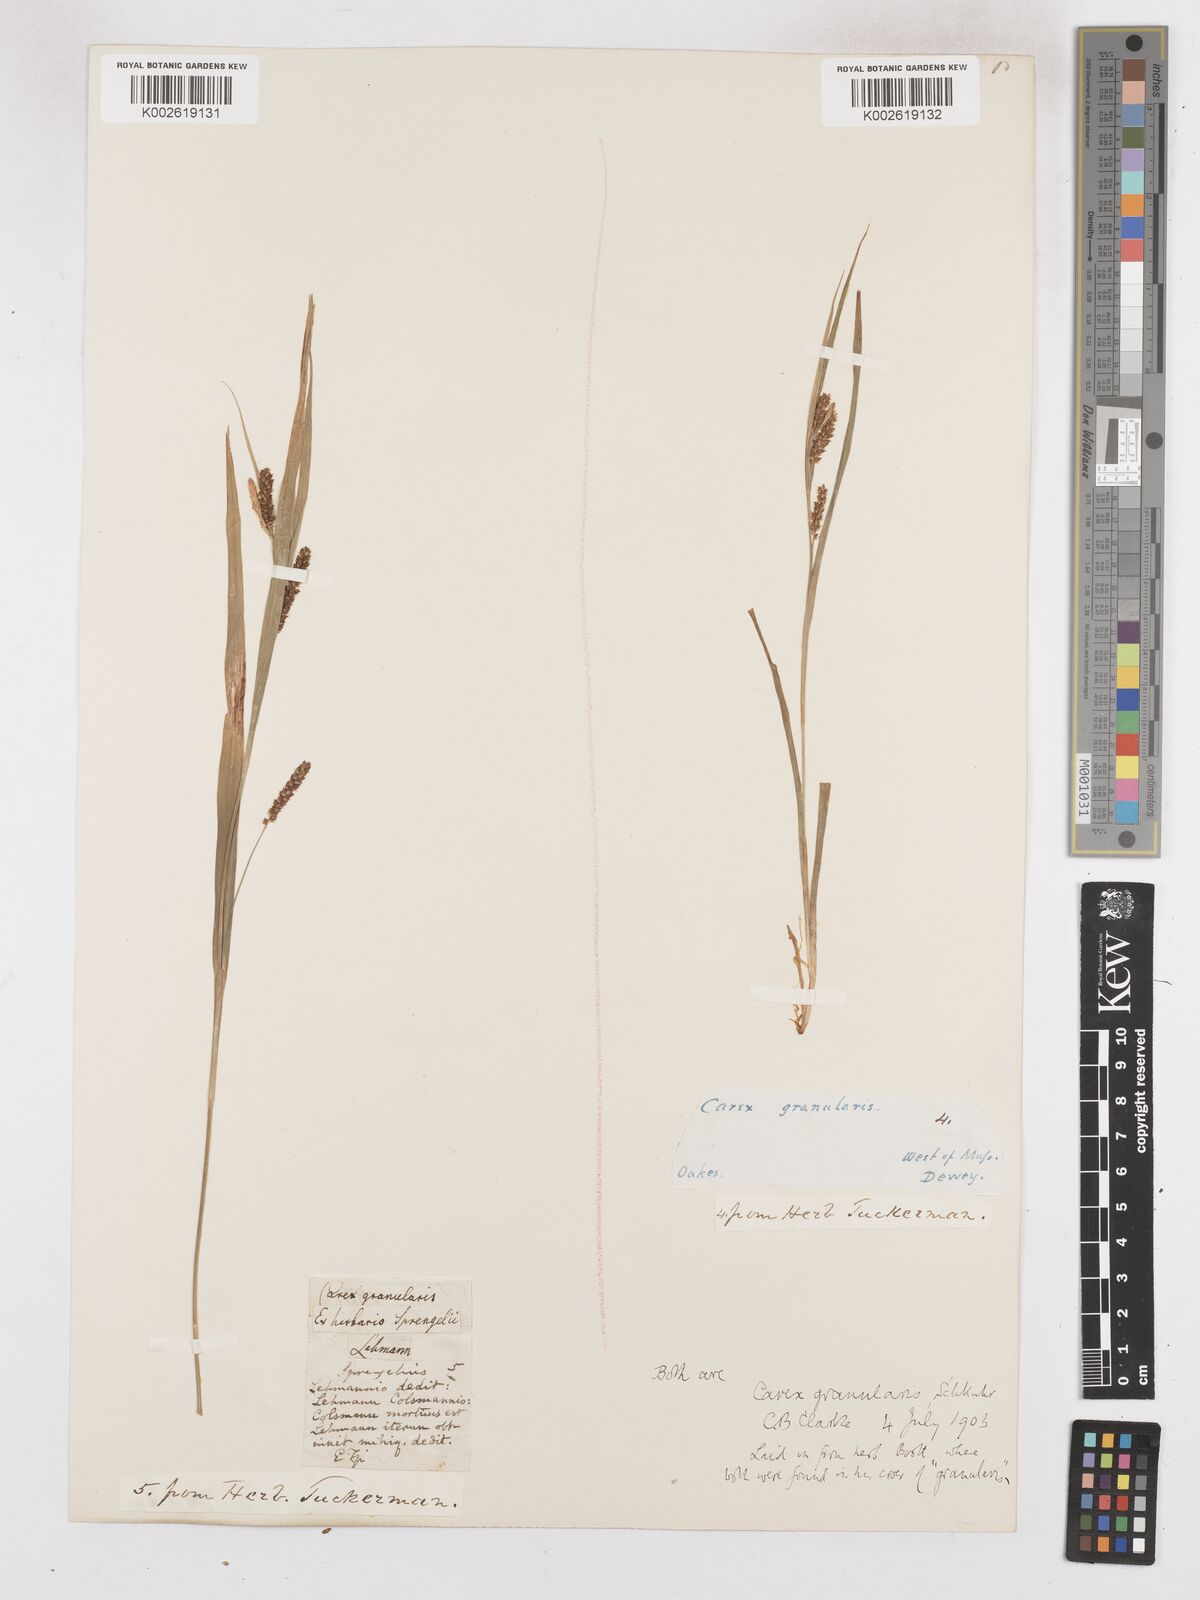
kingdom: Plantae
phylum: Tracheophyta
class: Liliopsida
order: Poales
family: Cyperaceae
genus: Carex
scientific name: Carex granularis
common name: Granular sedge
